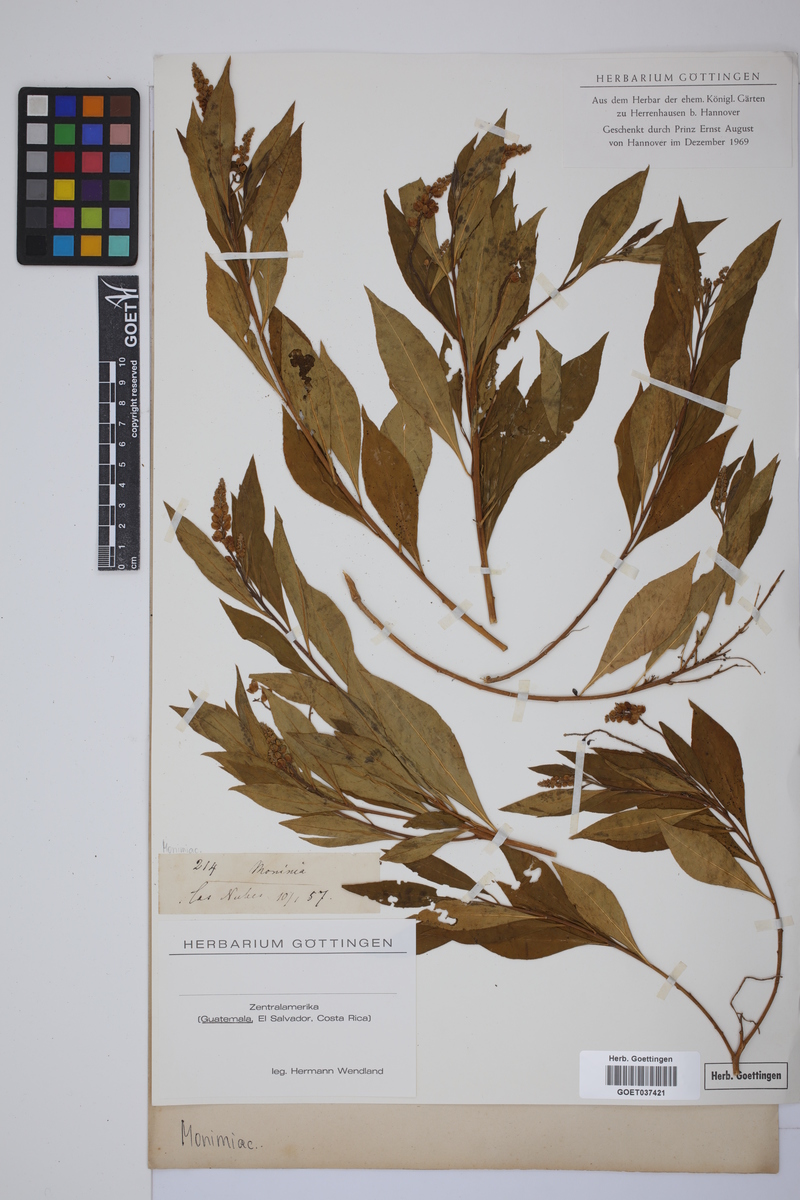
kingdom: Plantae
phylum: Tracheophyta
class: Magnoliopsida
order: Laurales
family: Monimiaceae
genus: Monimia
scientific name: Monimia
